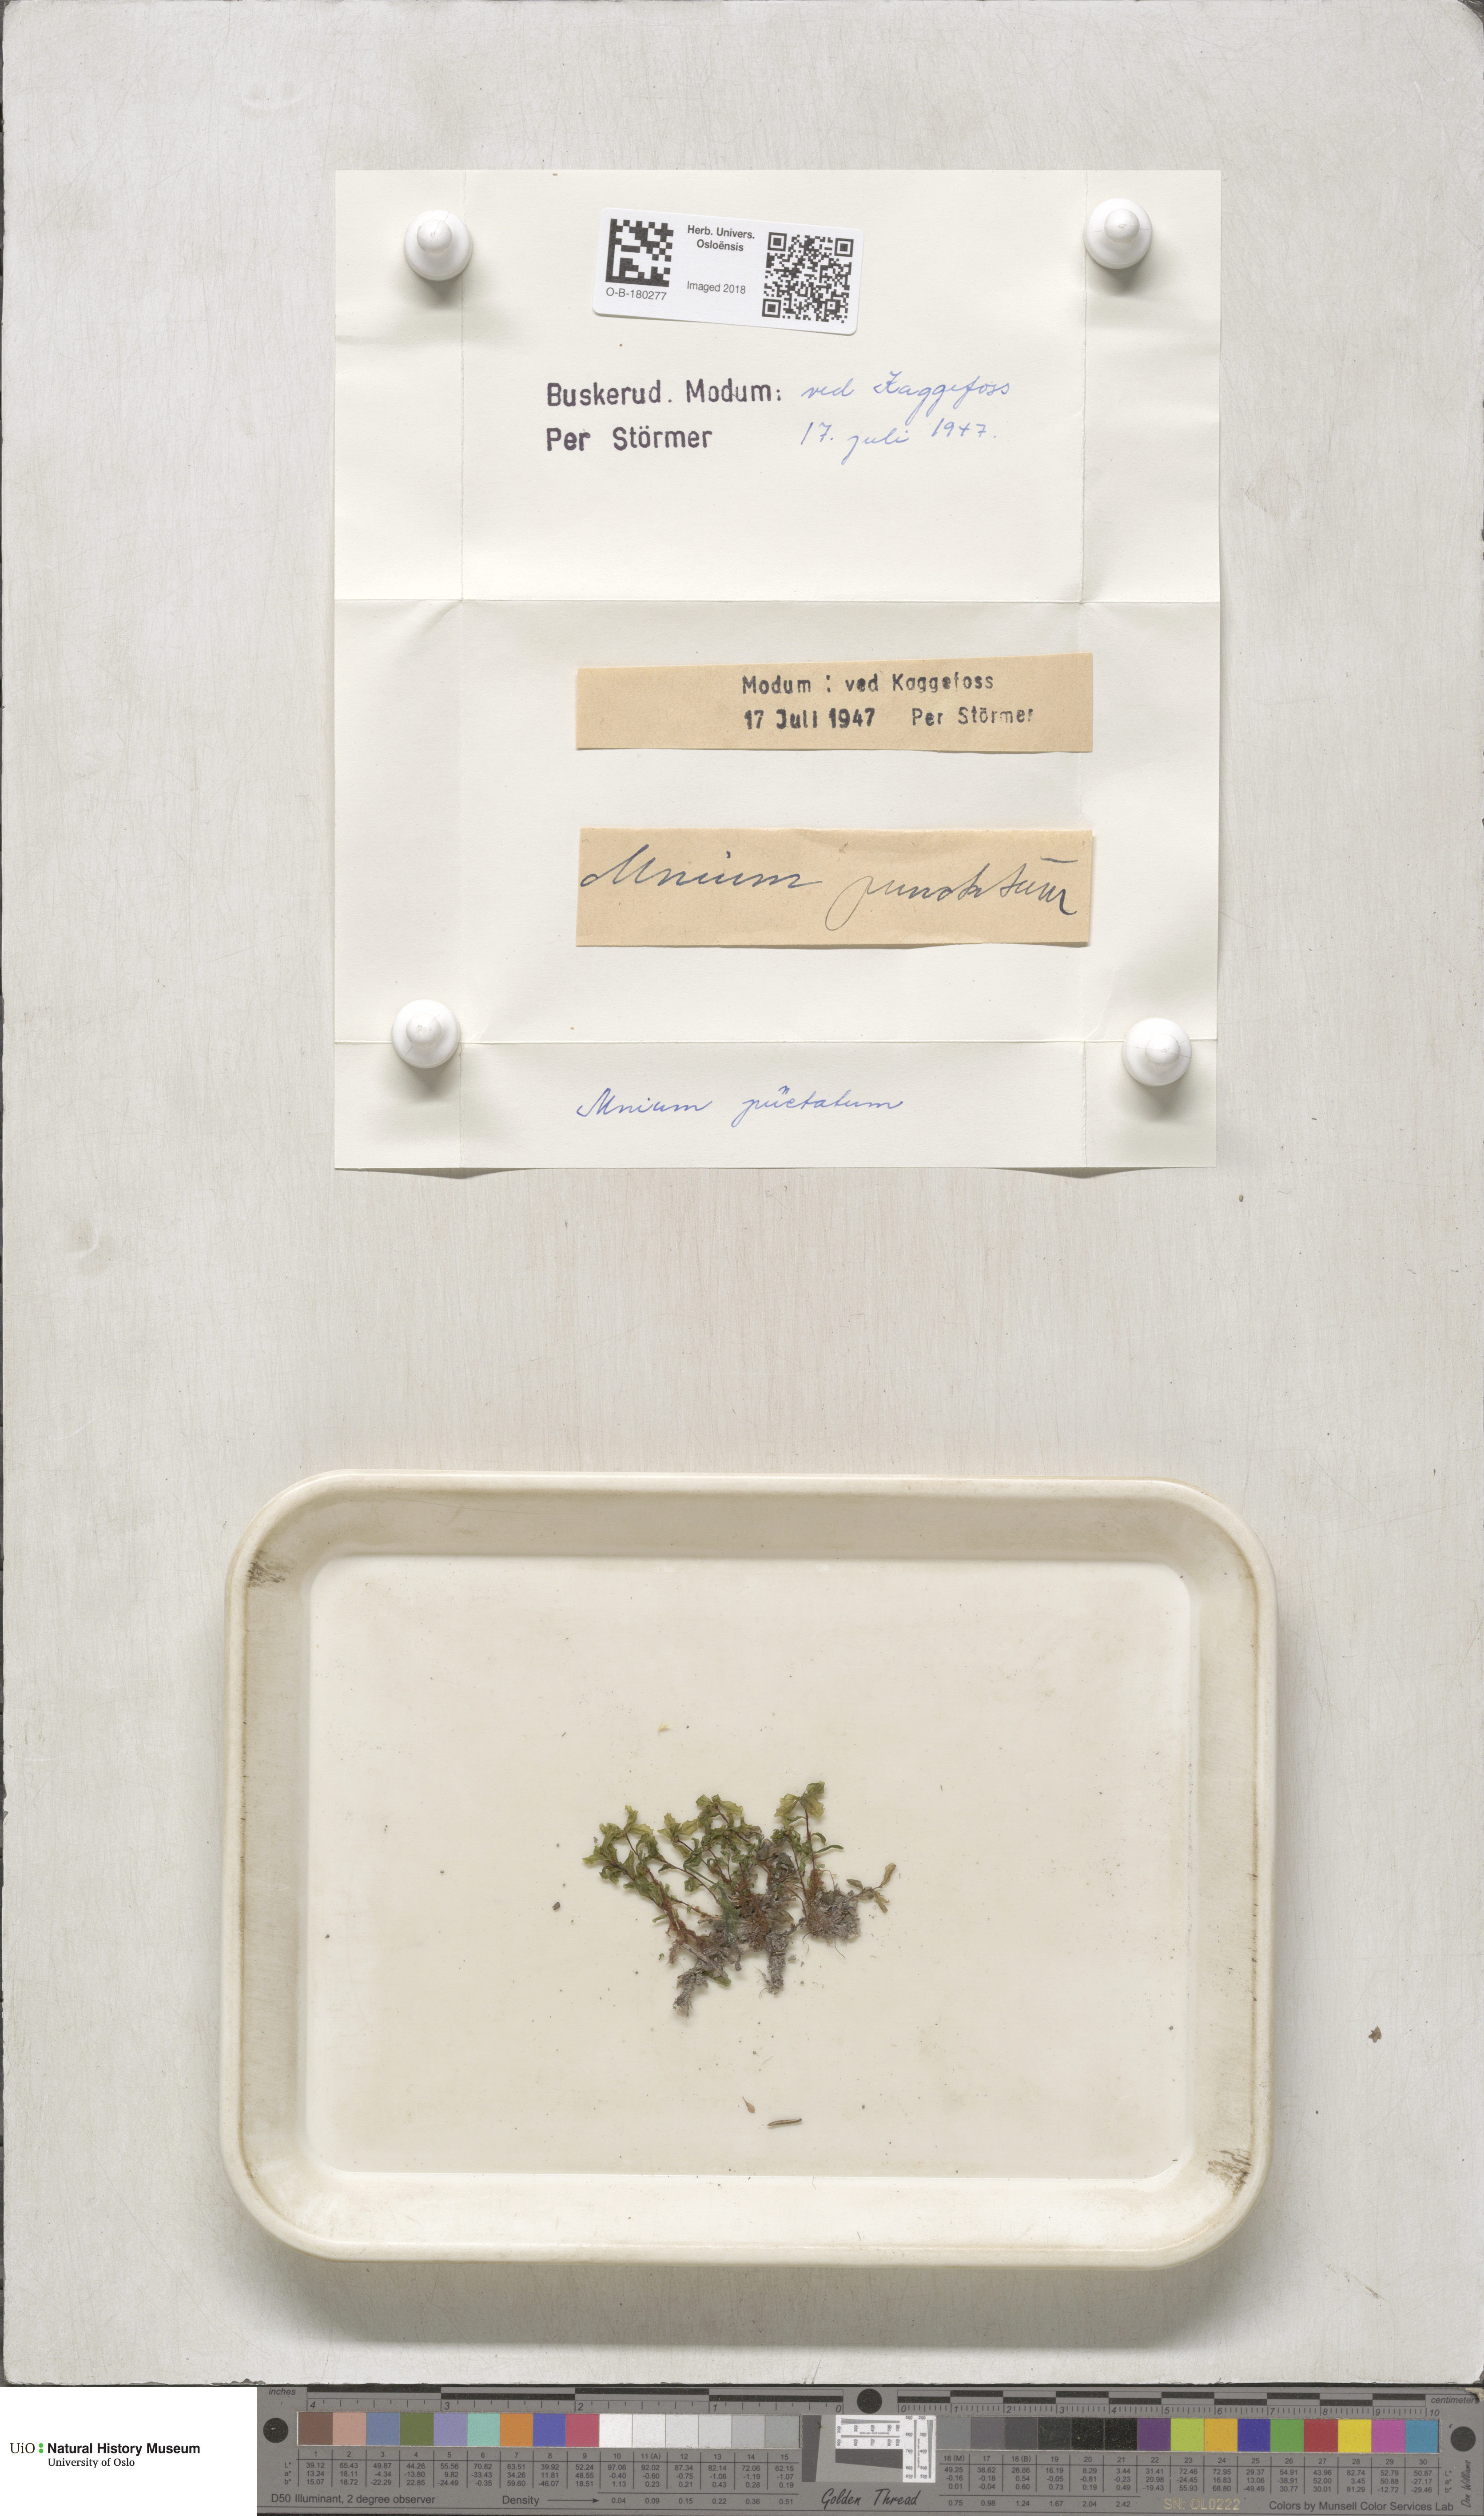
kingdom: Plantae
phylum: Bryophyta
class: Bryopsida
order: Bryales
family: Mniaceae
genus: Rhizomnium
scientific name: Rhizomnium punctatum
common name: Dotted leafy moss
